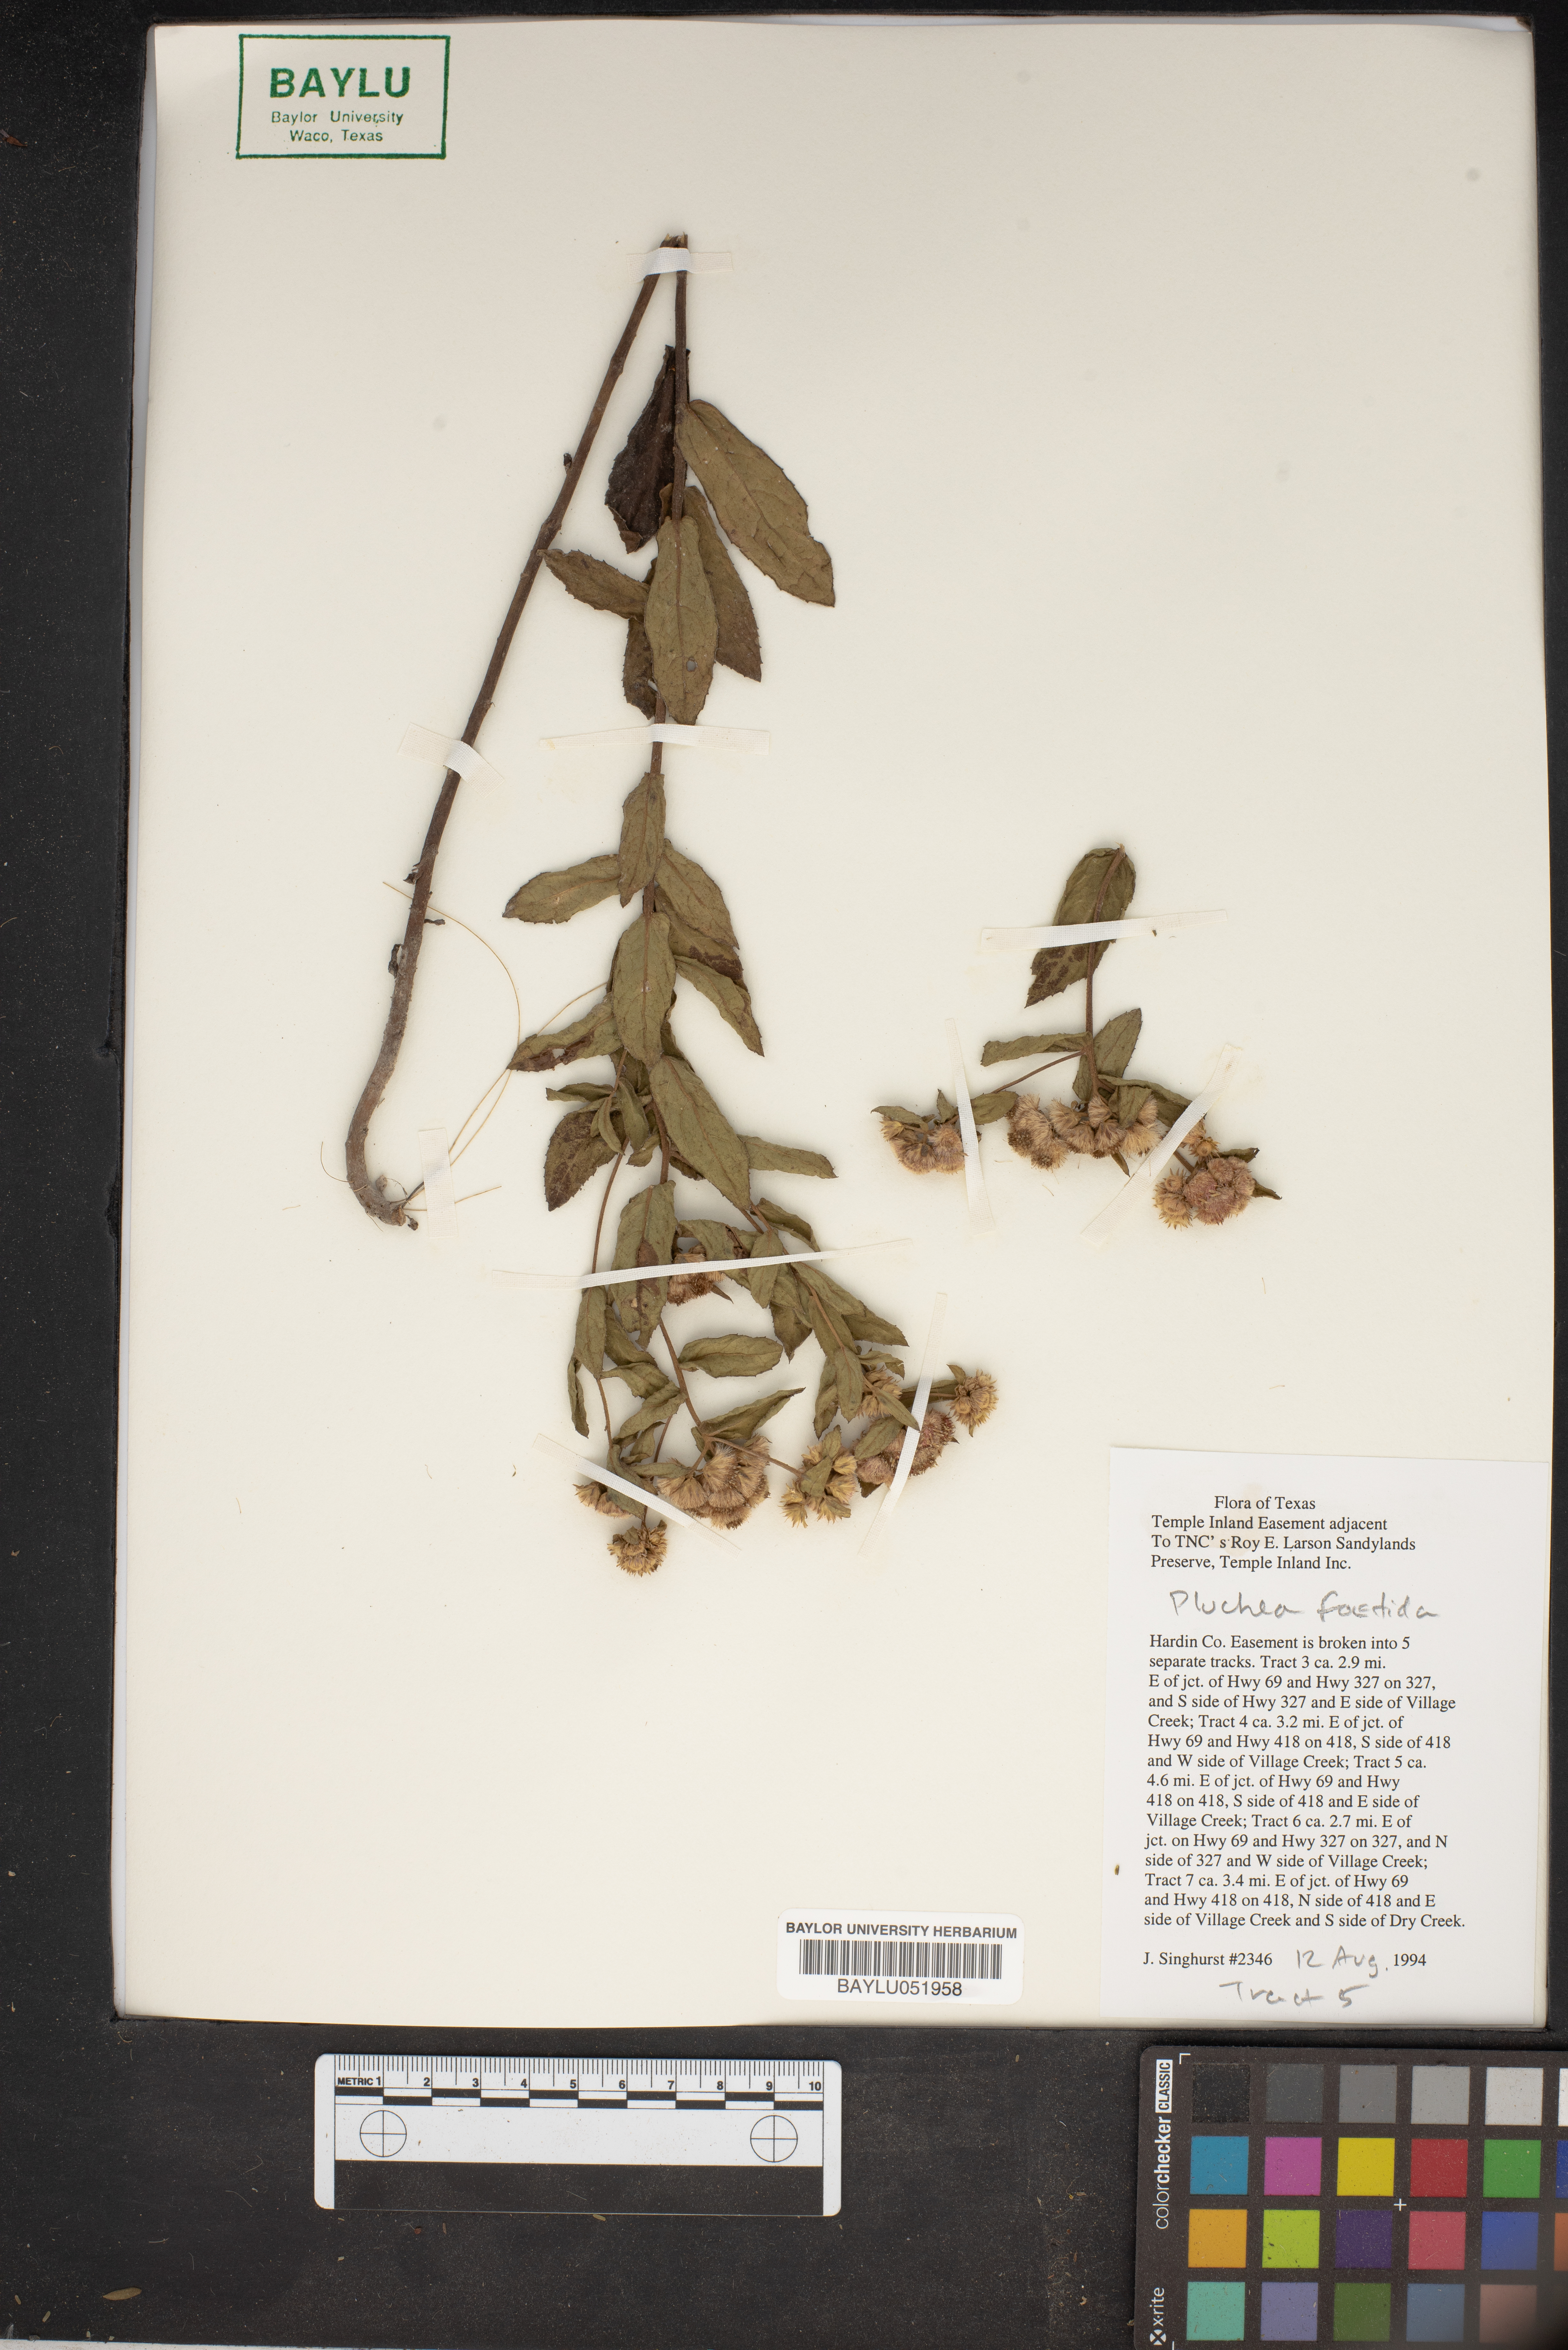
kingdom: Plantae
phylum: Tracheophyta
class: Magnoliopsida
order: Asterales
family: Asteraceae
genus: Pluchea
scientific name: Pluchea foetida
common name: Stinking camphorweed
